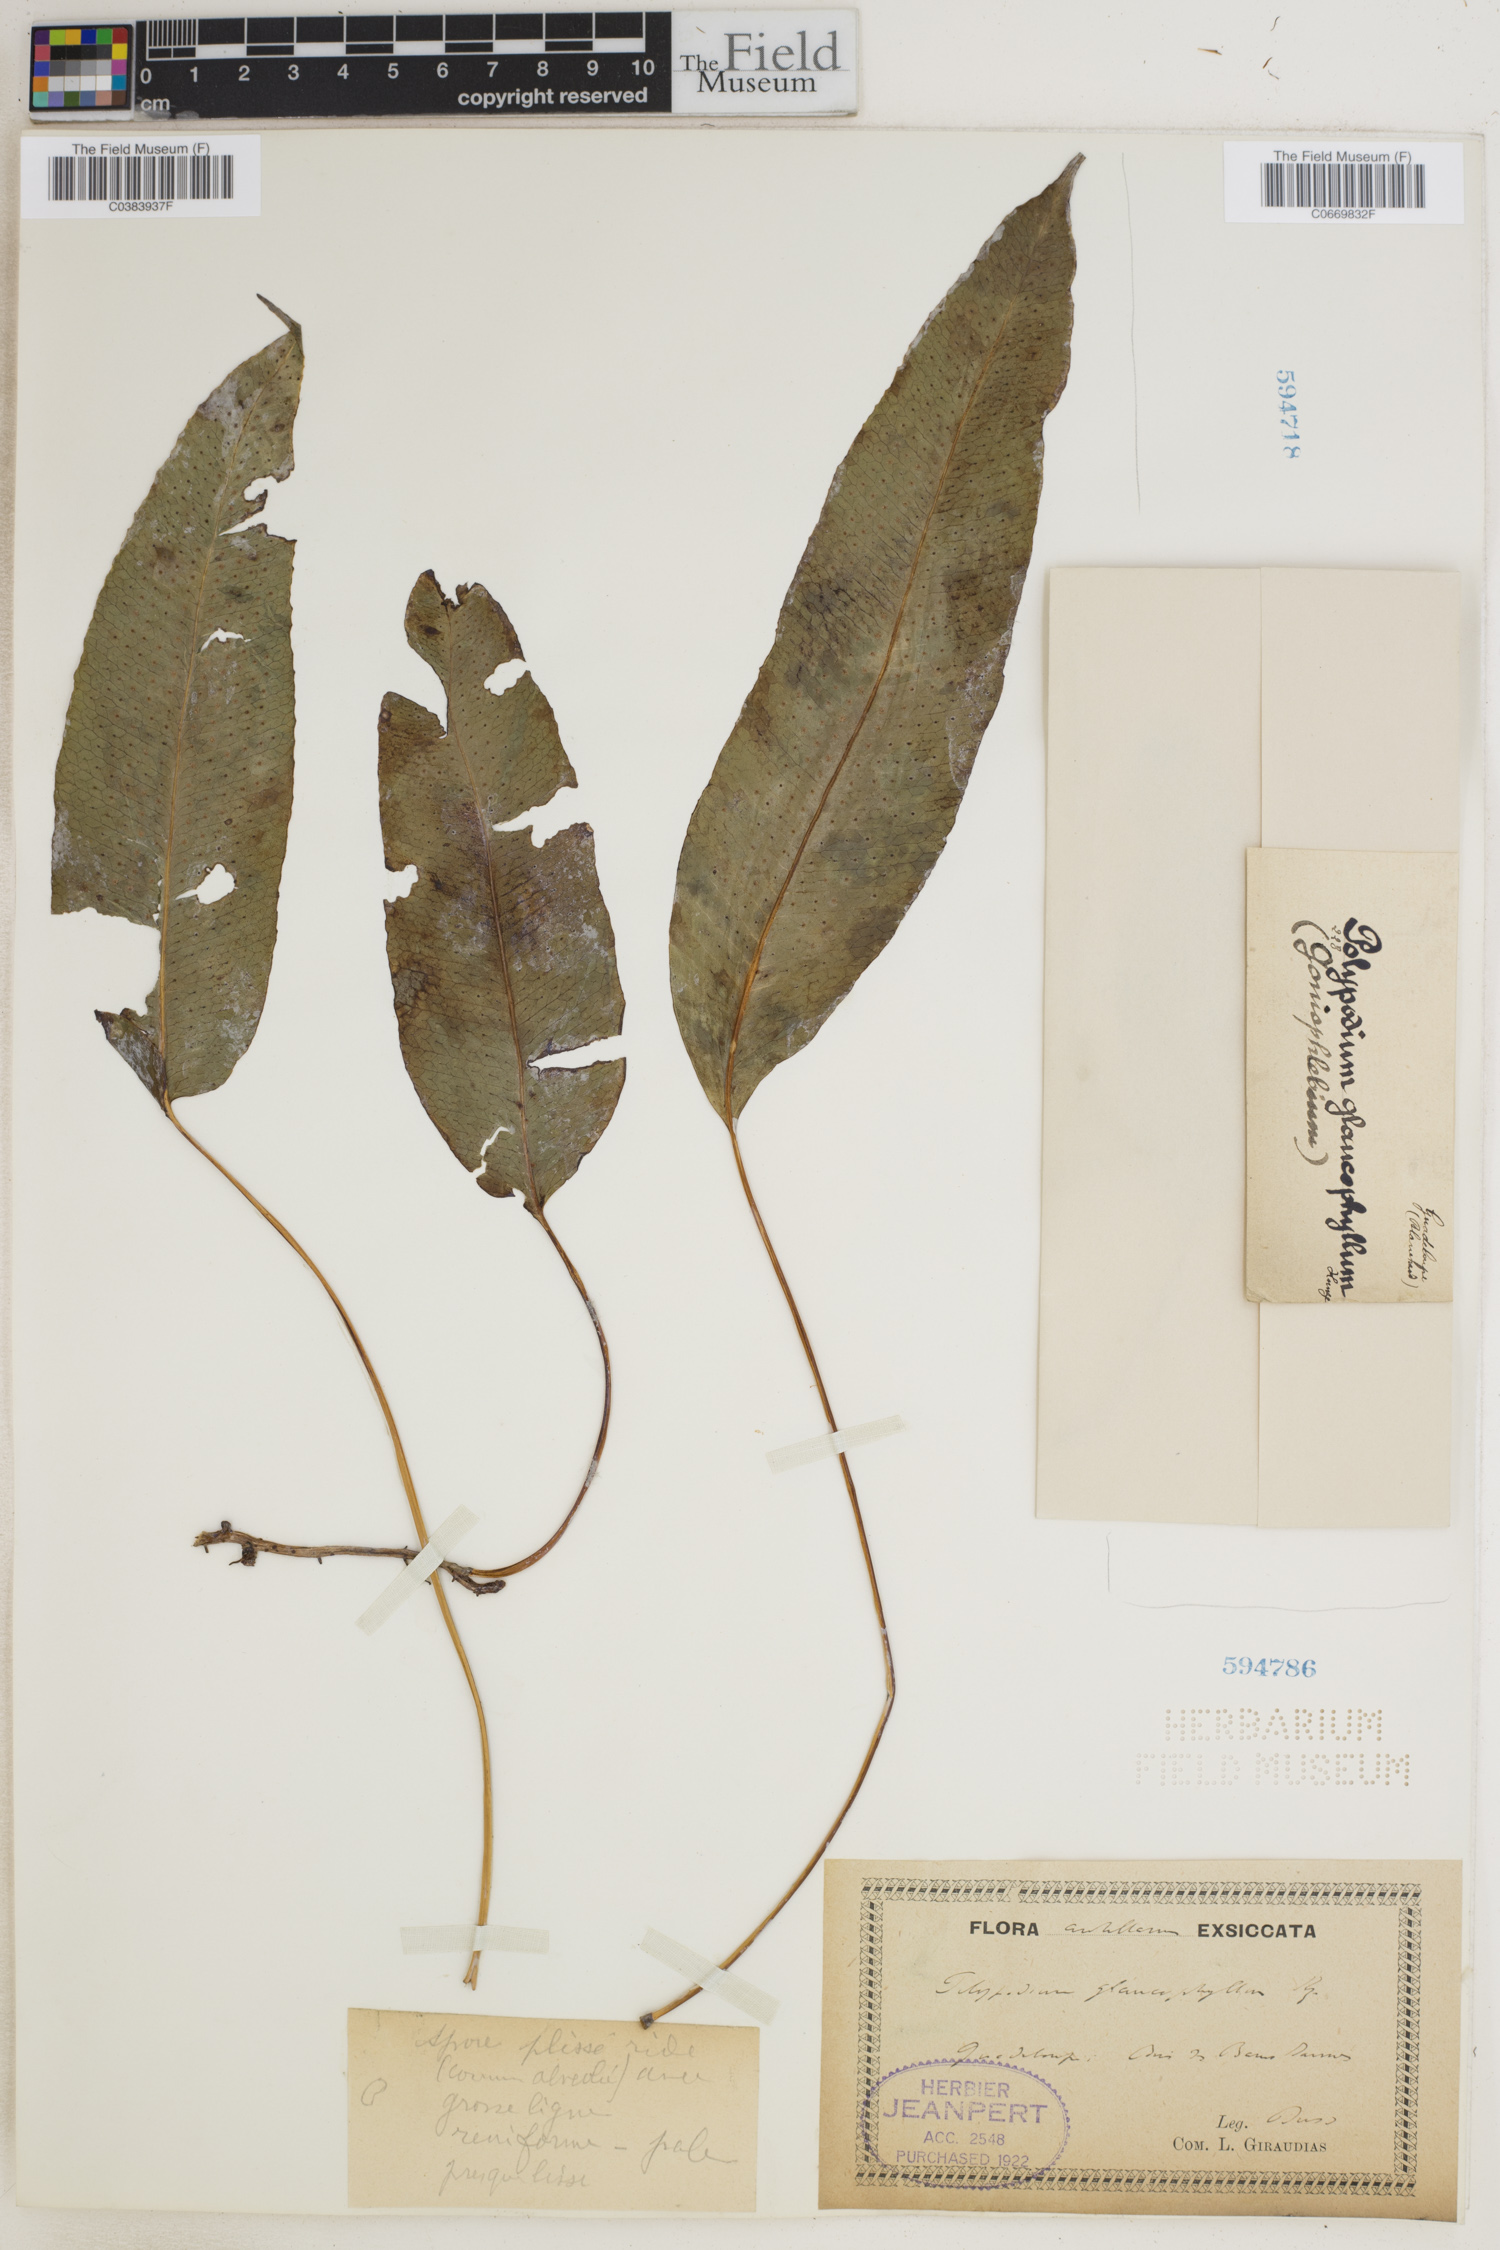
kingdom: Plantae
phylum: Tracheophyta
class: Polypodiopsida
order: Polypodiales
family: Polypodiaceae
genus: Polypodium
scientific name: Polypodium glaucophyllum
